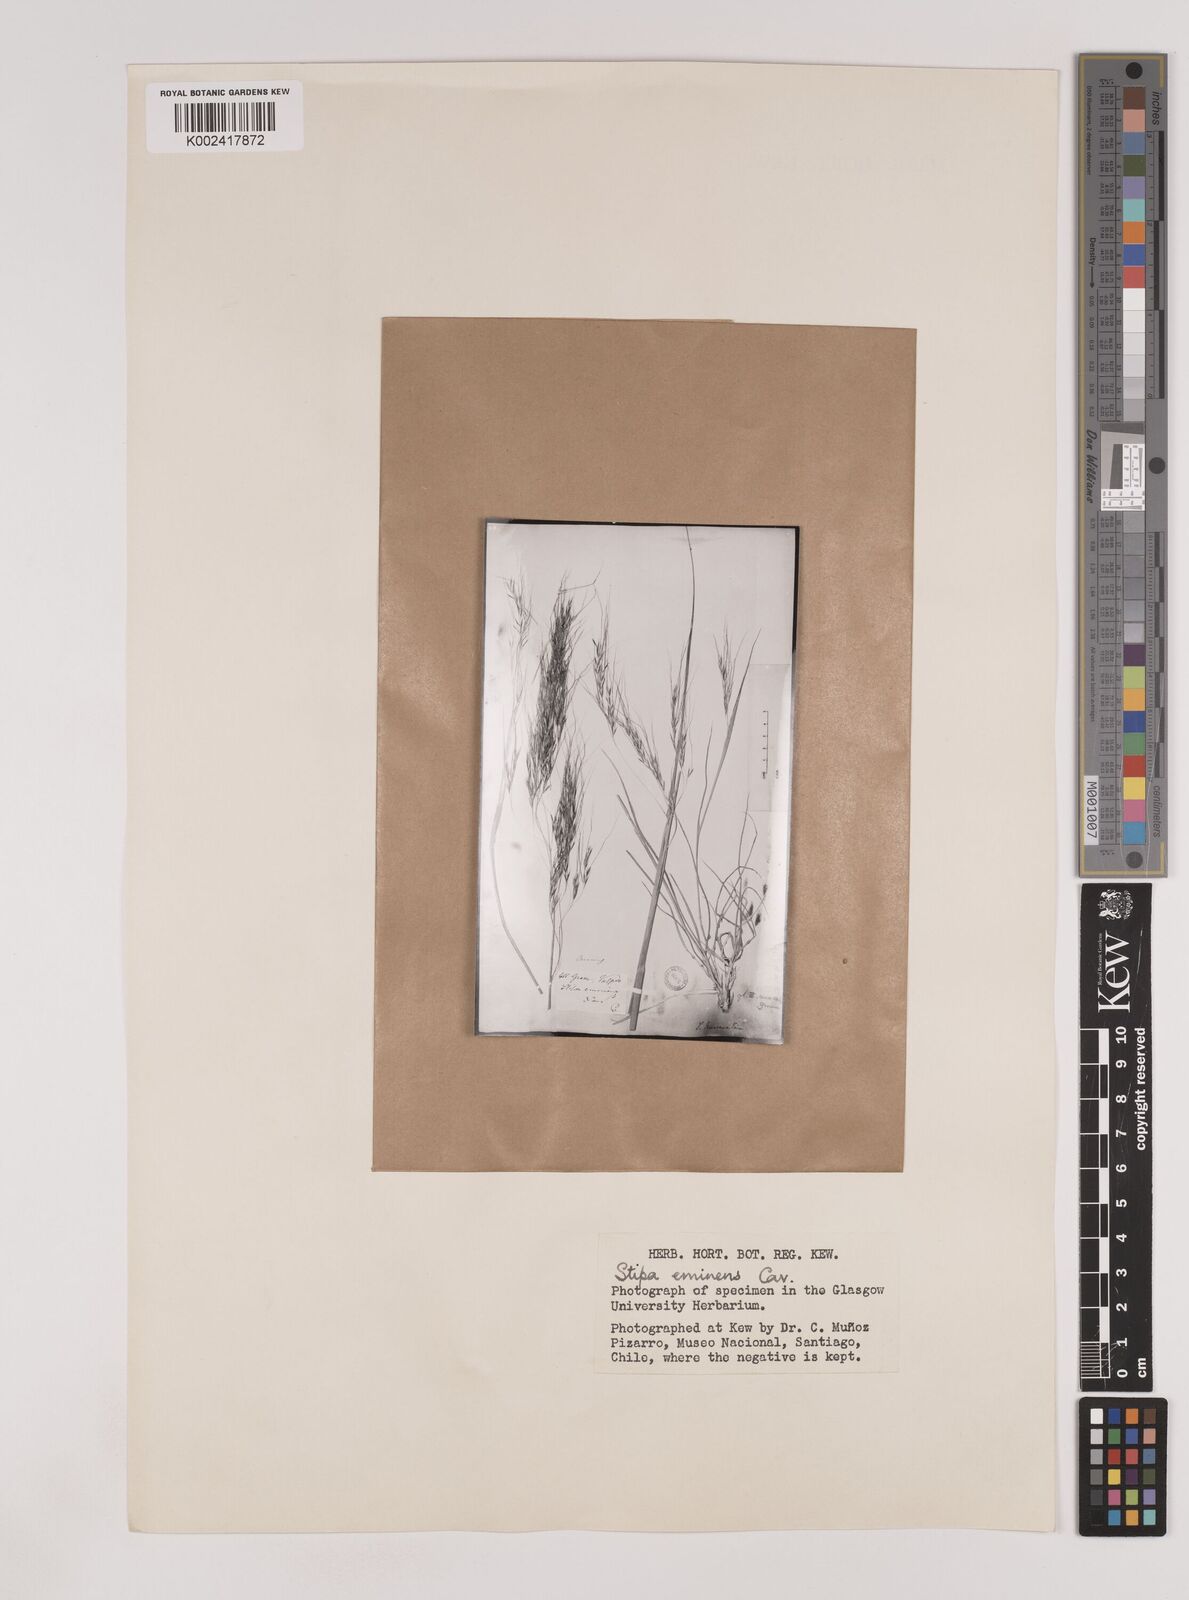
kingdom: Plantae
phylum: Tracheophyta
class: Liliopsida
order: Poales
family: Poaceae
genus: Nassella
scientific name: Nassella neesiana
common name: American needle-grass
